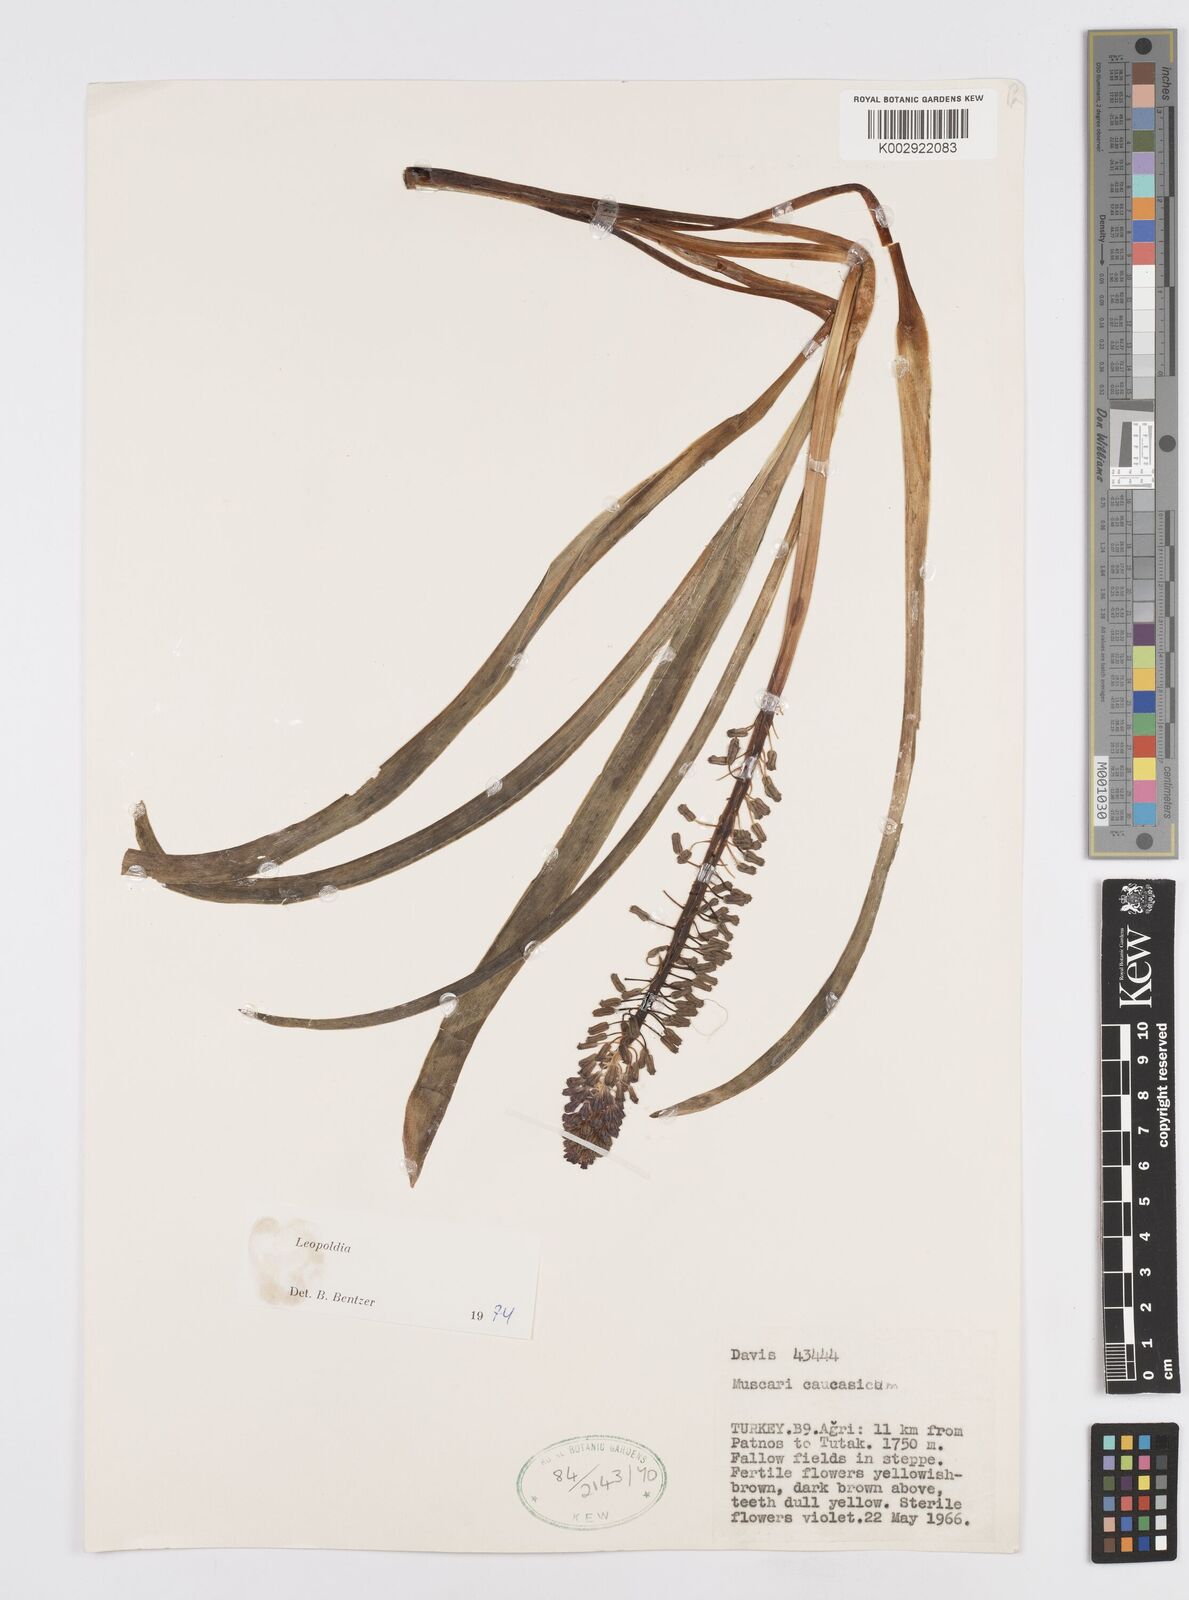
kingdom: Plantae
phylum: Tracheophyta
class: Liliopsida
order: Asparagales
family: Asparagaceae
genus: Muscari
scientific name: Muscari caucasicum
